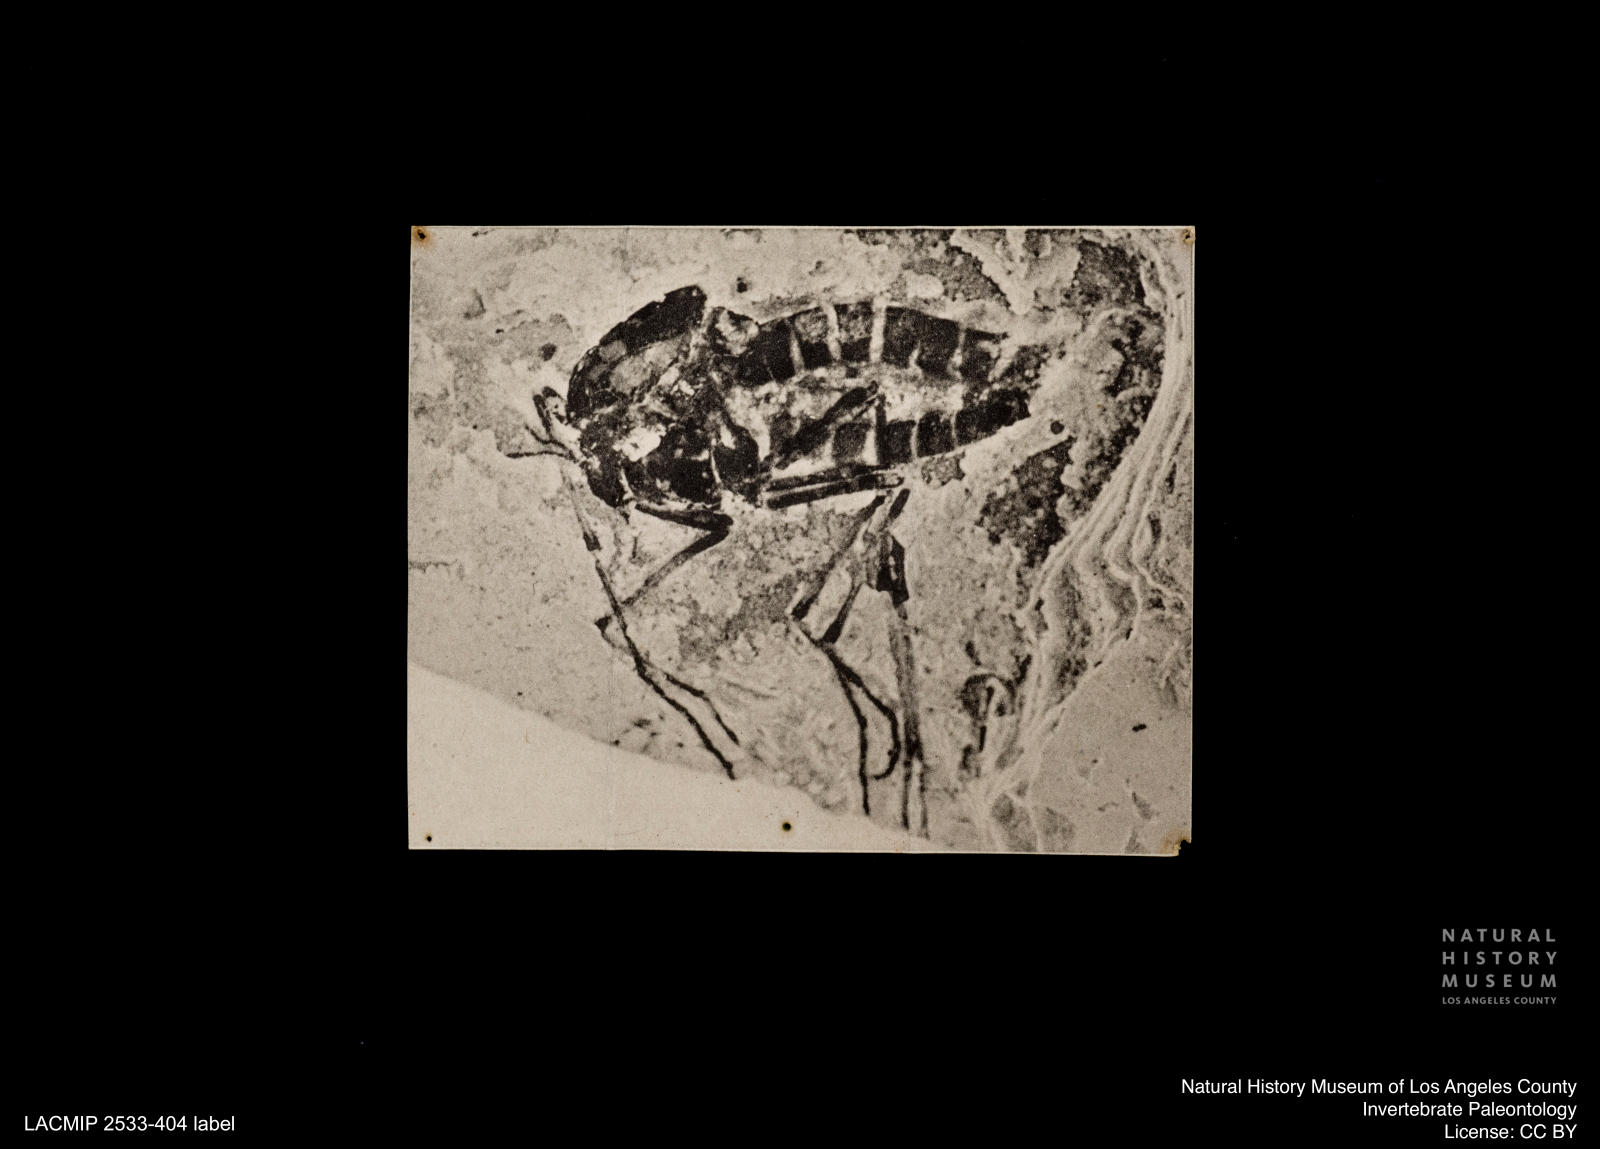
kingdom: Animalia
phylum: Arthropoda
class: Insecta
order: Diptera
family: Chironomidae
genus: Tanypus
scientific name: Tanypus
